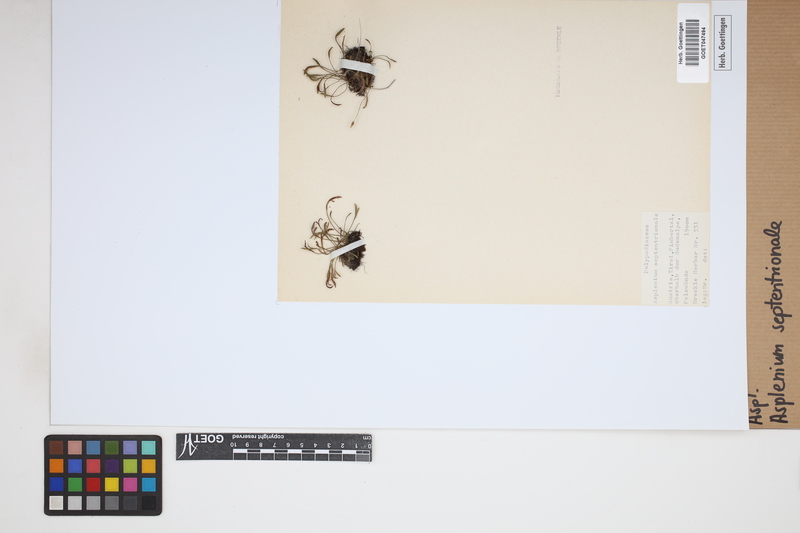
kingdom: Plantae
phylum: Tracheophyta
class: Polypodiopsida
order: Polypodiales
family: Aspleniaceae
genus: Asplenium
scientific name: Asplenium septentrionale
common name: Forked spleenwort
